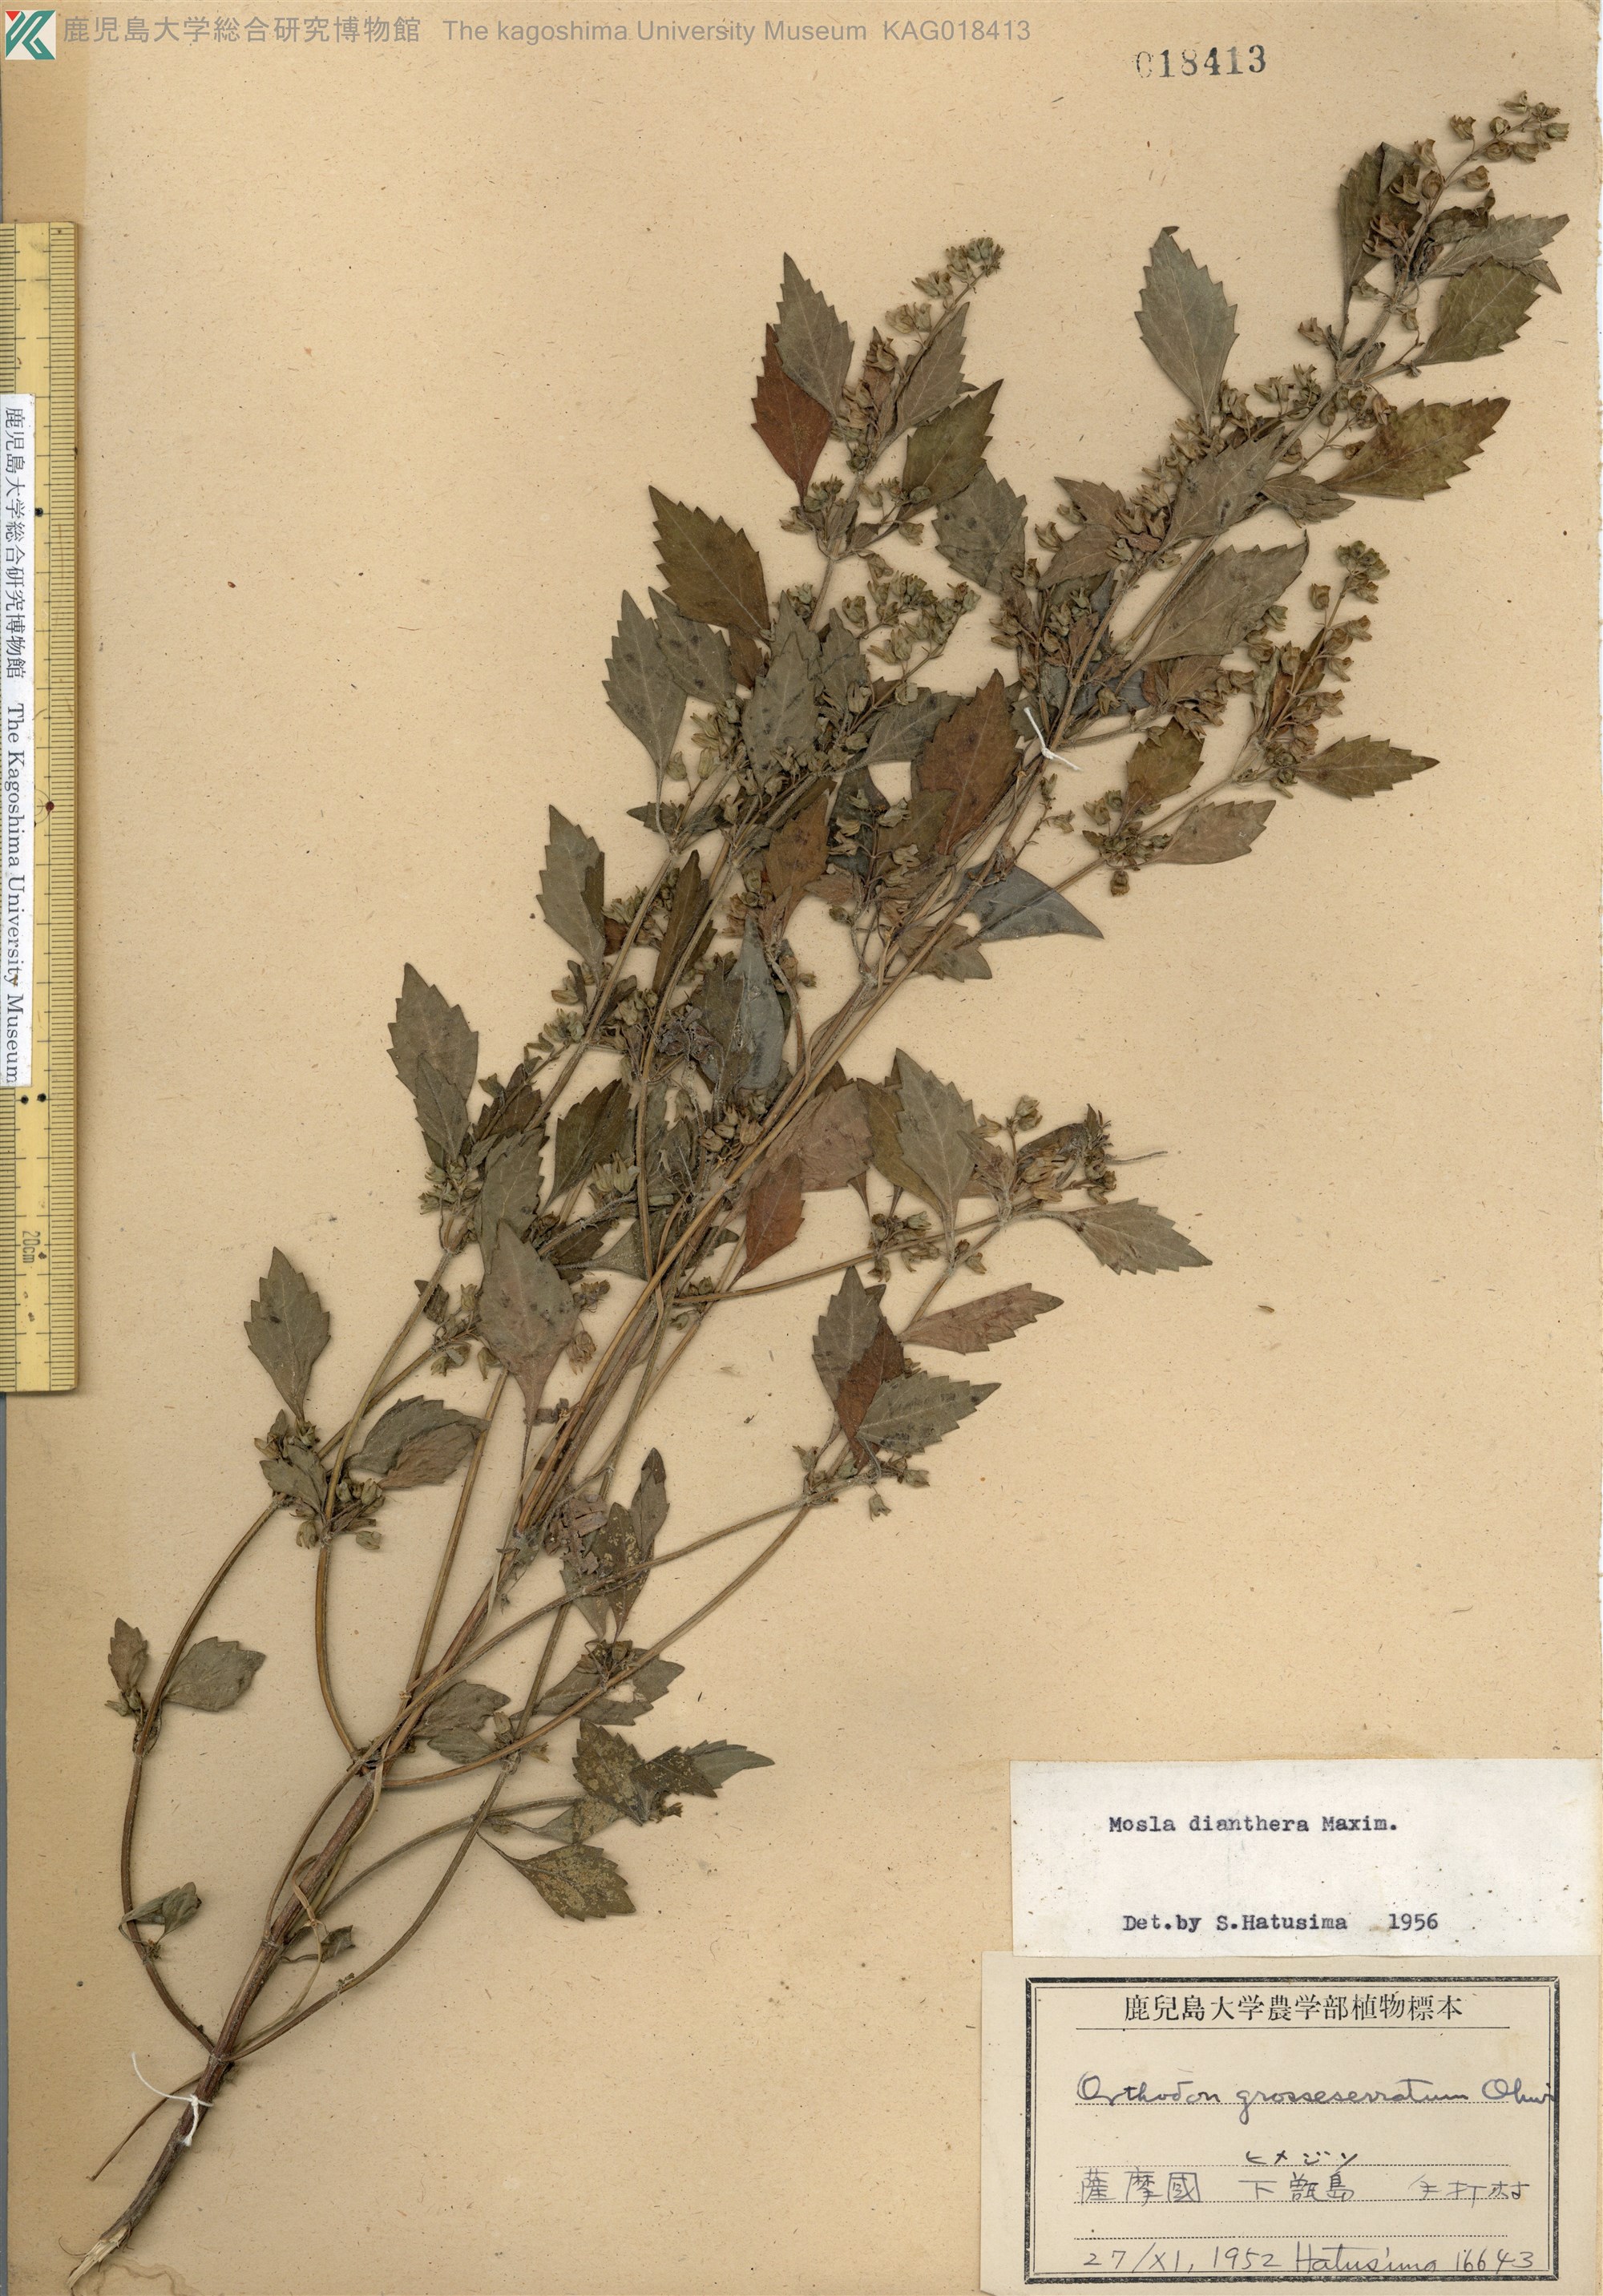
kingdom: Plantae
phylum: Tracheophyta
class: Magnoliopsida
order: Lamiales
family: Lamiaceae
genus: Mosla
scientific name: Mosla dianthera
